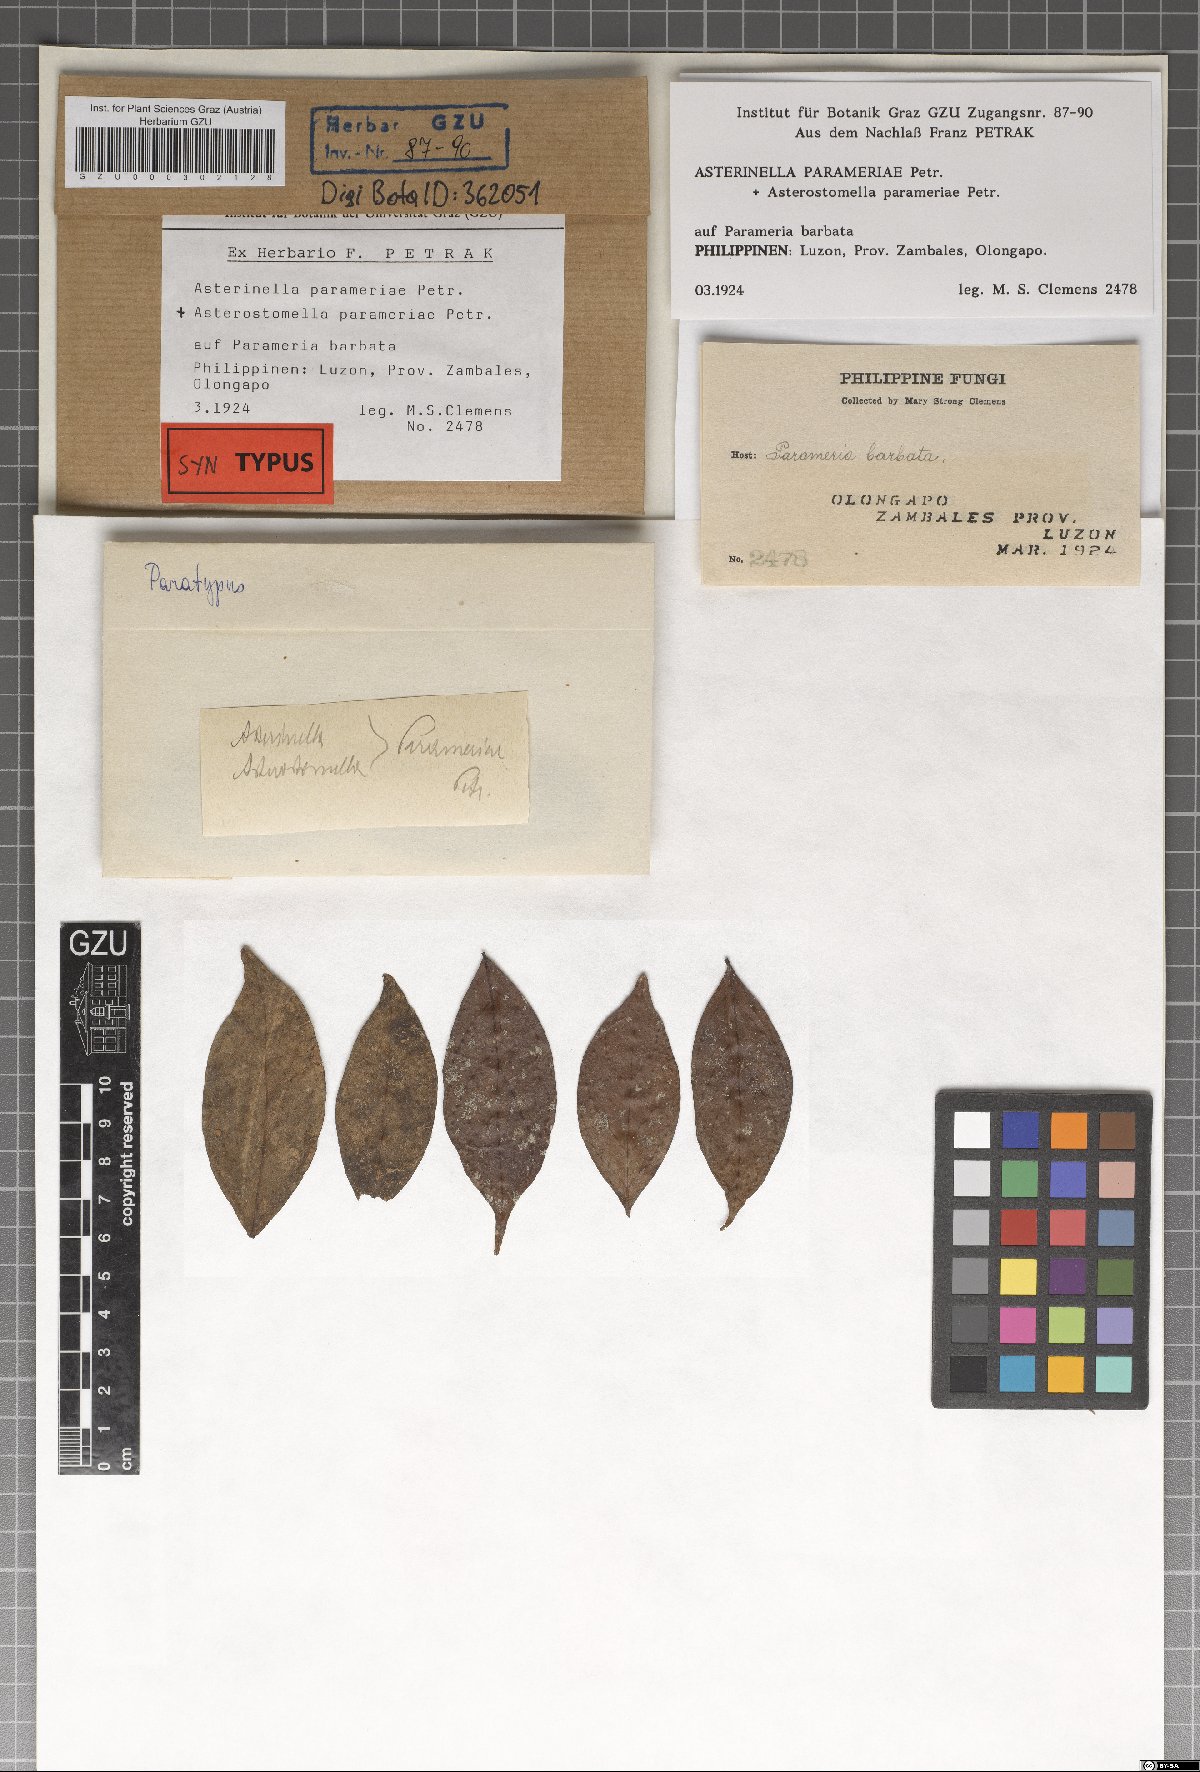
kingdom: Fungi
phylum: Ascomycota
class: Dothideomycetes
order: Microthyriales
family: Microthyriaceae
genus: Asterinella
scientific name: Asterinella parameriae
